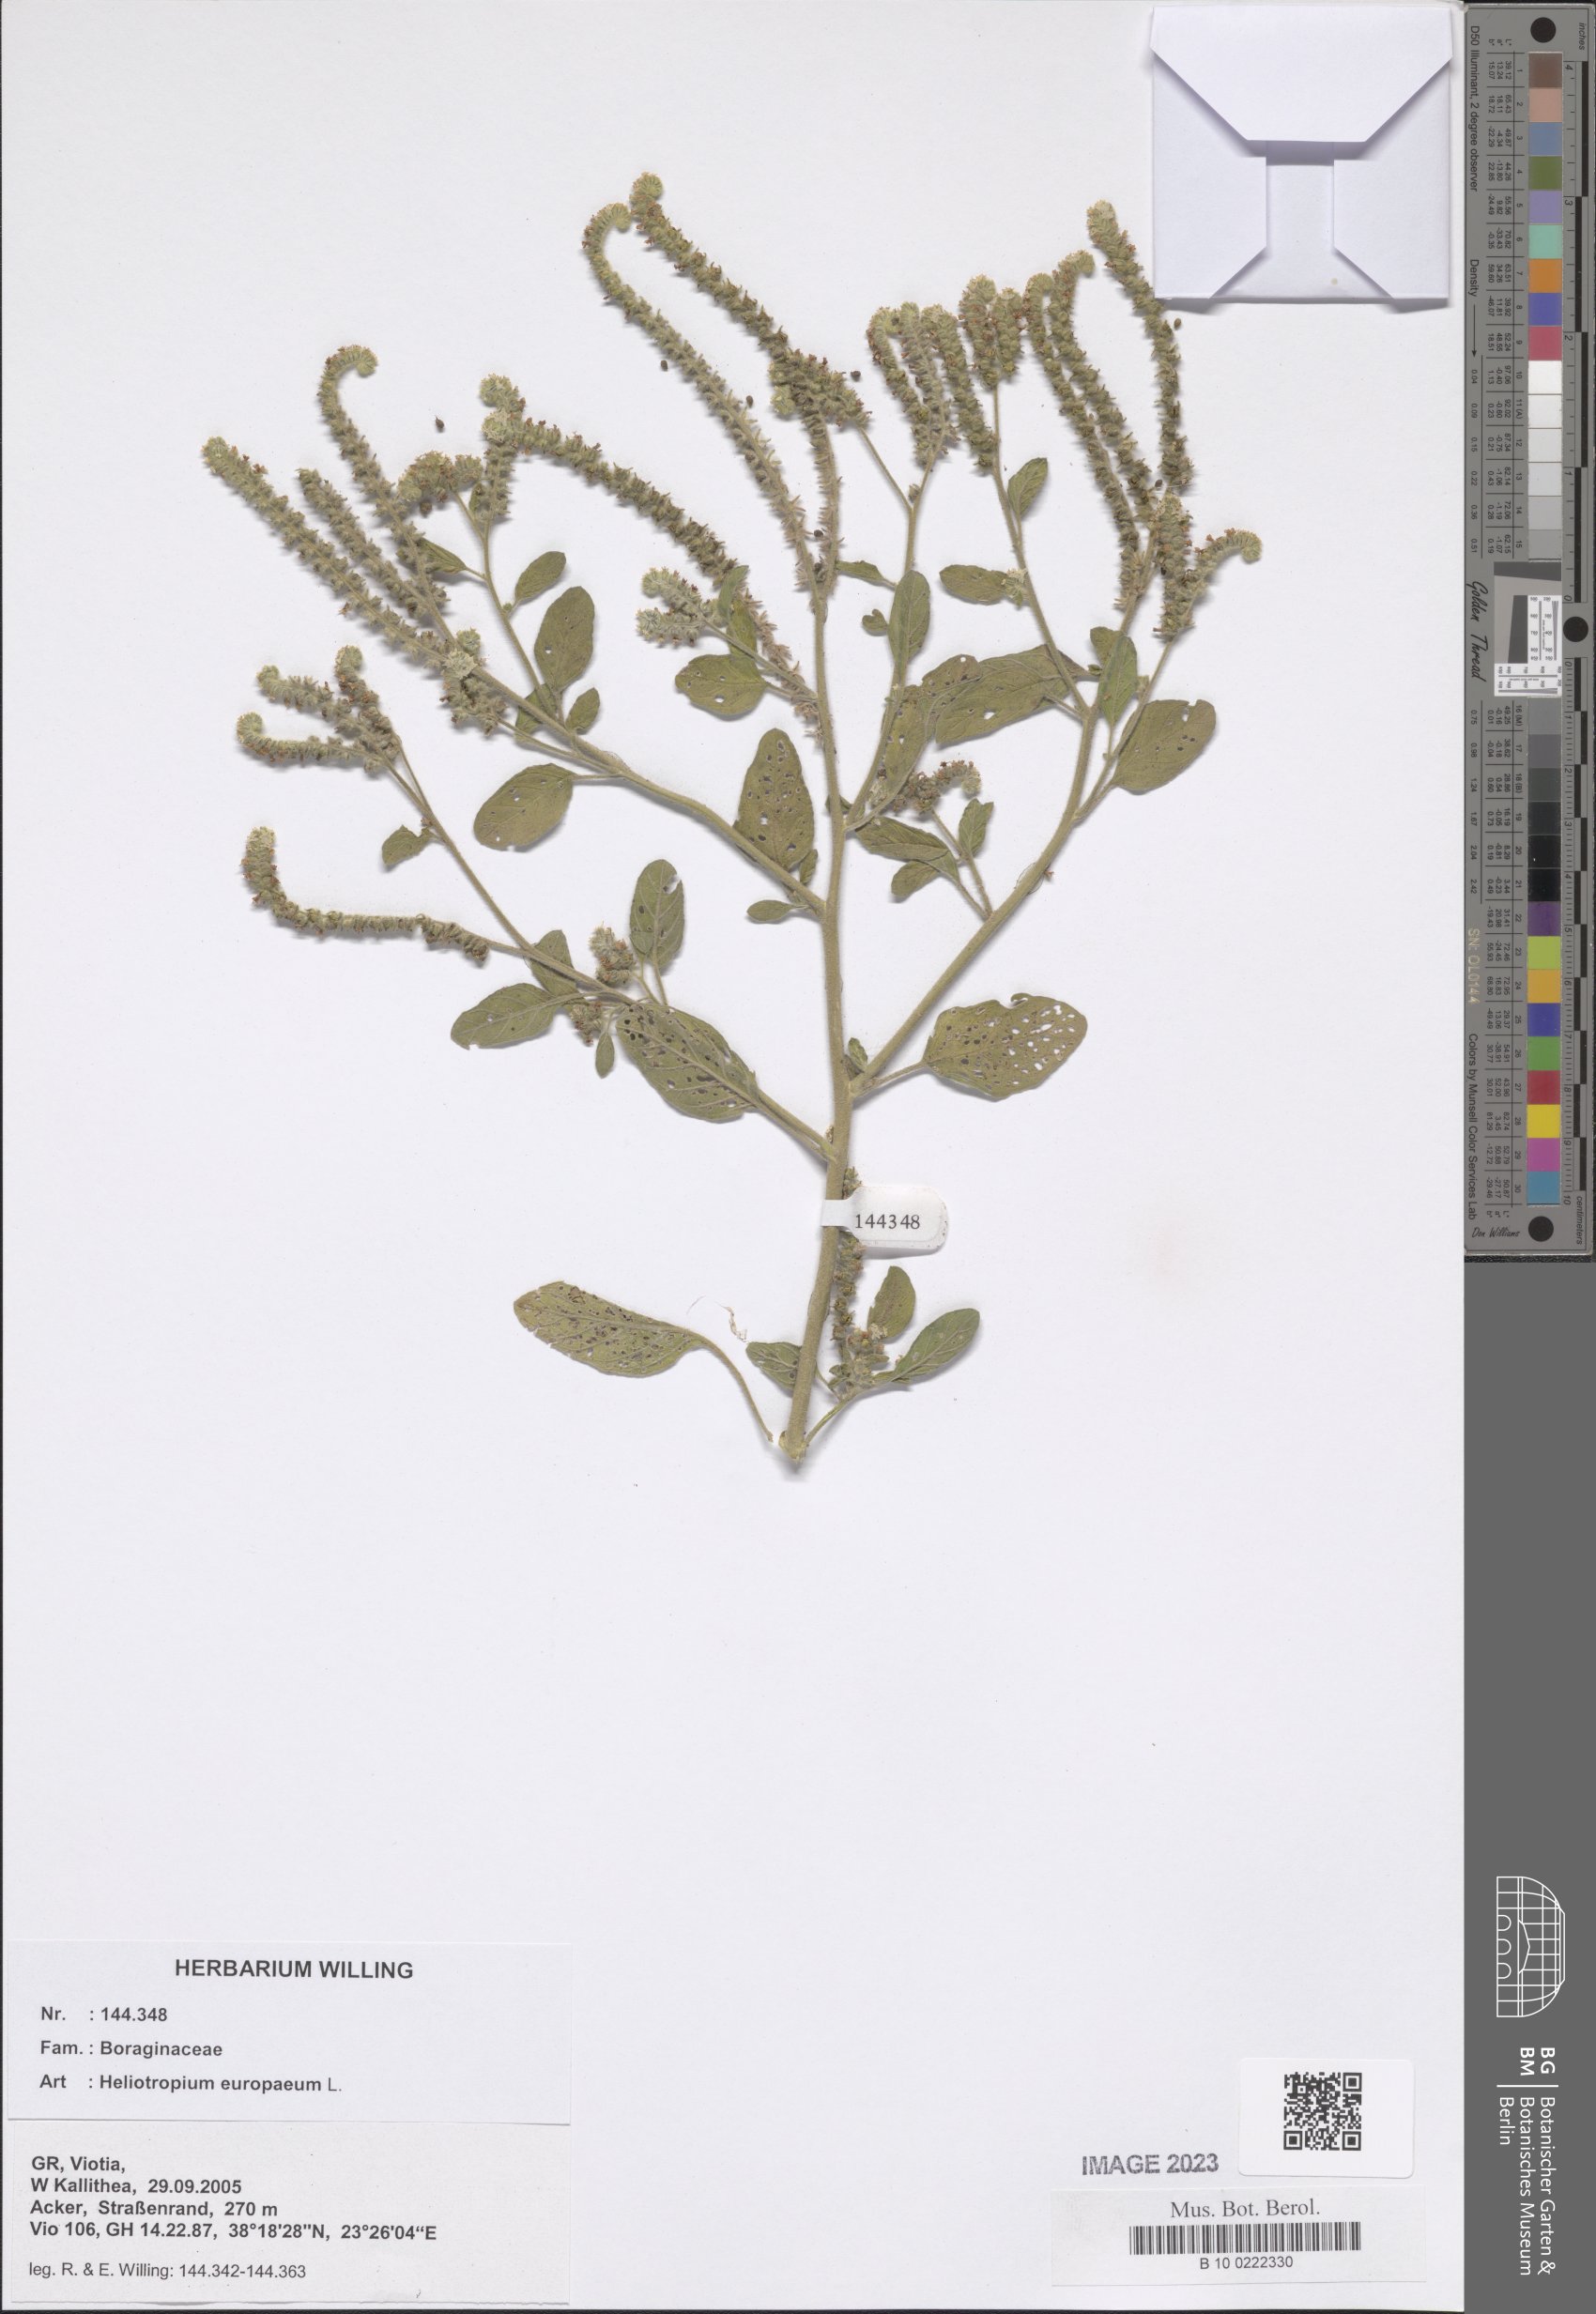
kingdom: Plantae
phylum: Tracheophyta
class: Magnoliopsida
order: Boraginales
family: Heliotropiaceae
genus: Heliotropium
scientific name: Heliotropium europaeum
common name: European heliotrope
